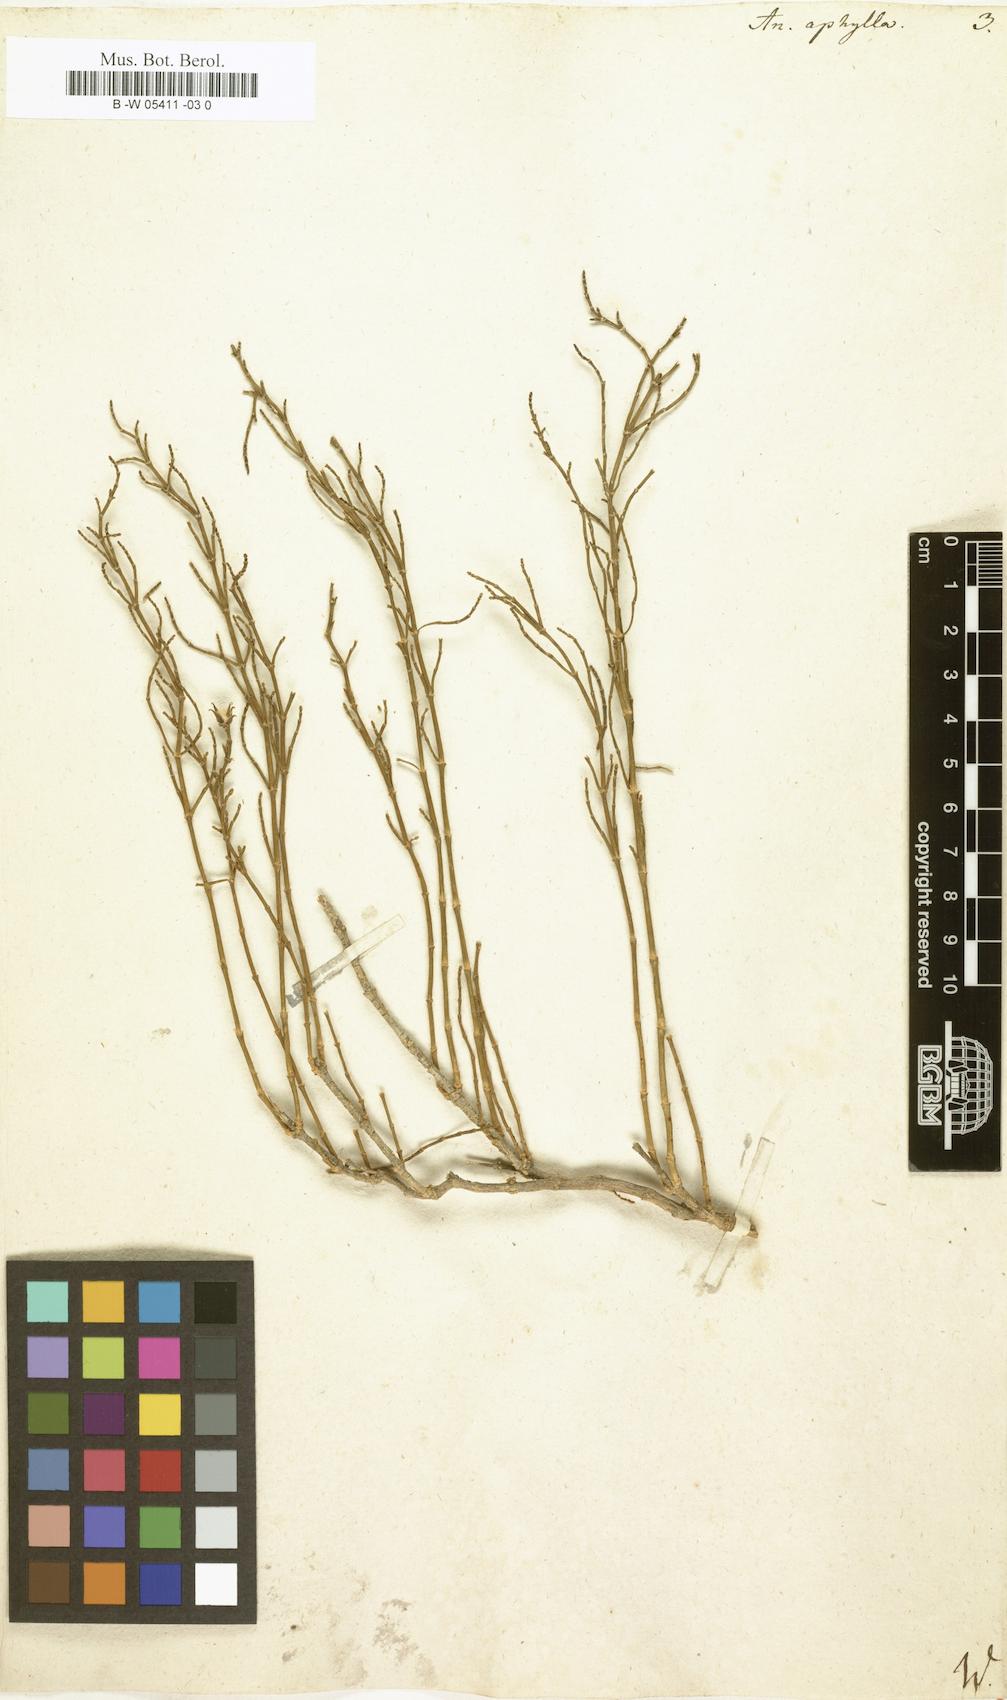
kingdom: Plantae
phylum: Tracheophyta
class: Magnoliopsida
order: Caryophyllales
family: Amaranthaceae
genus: Anabasis
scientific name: Anabasis aphylla
